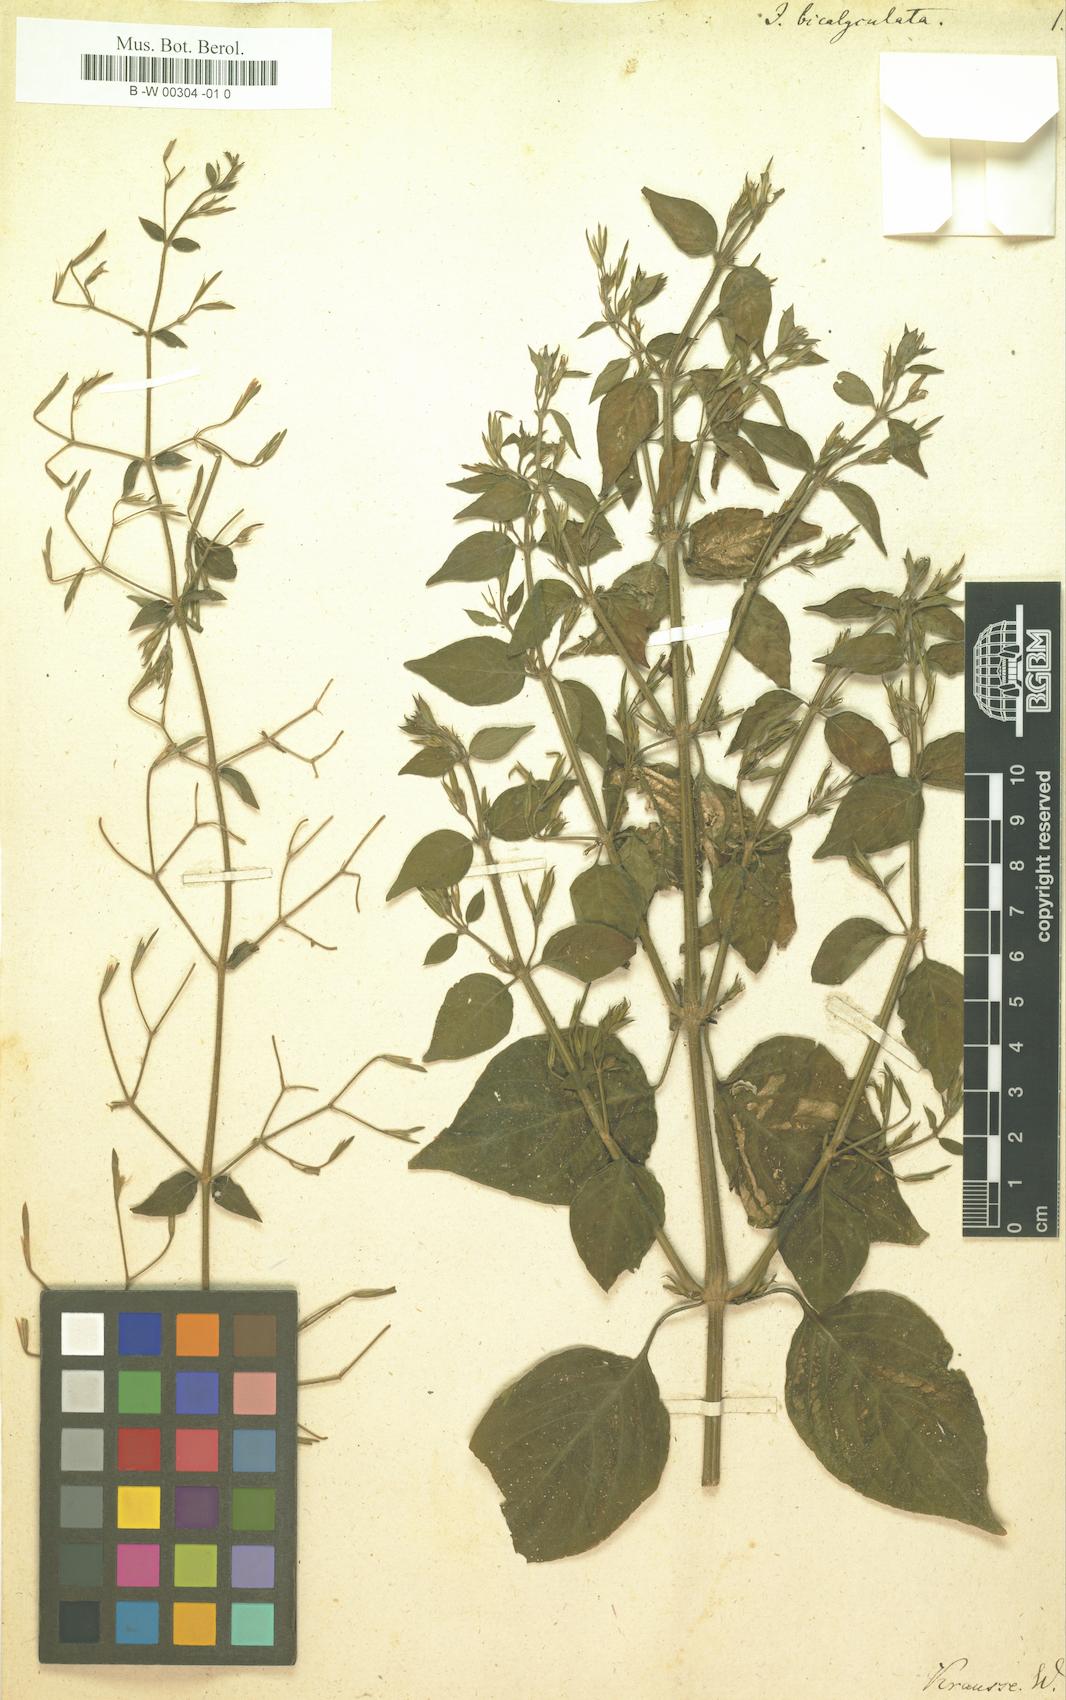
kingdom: Plantae
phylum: Tracheophyta
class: Magnoliopsida
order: Lamiales
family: Acanthaceae
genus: Dicliptera
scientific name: Dicliptera paniculata
